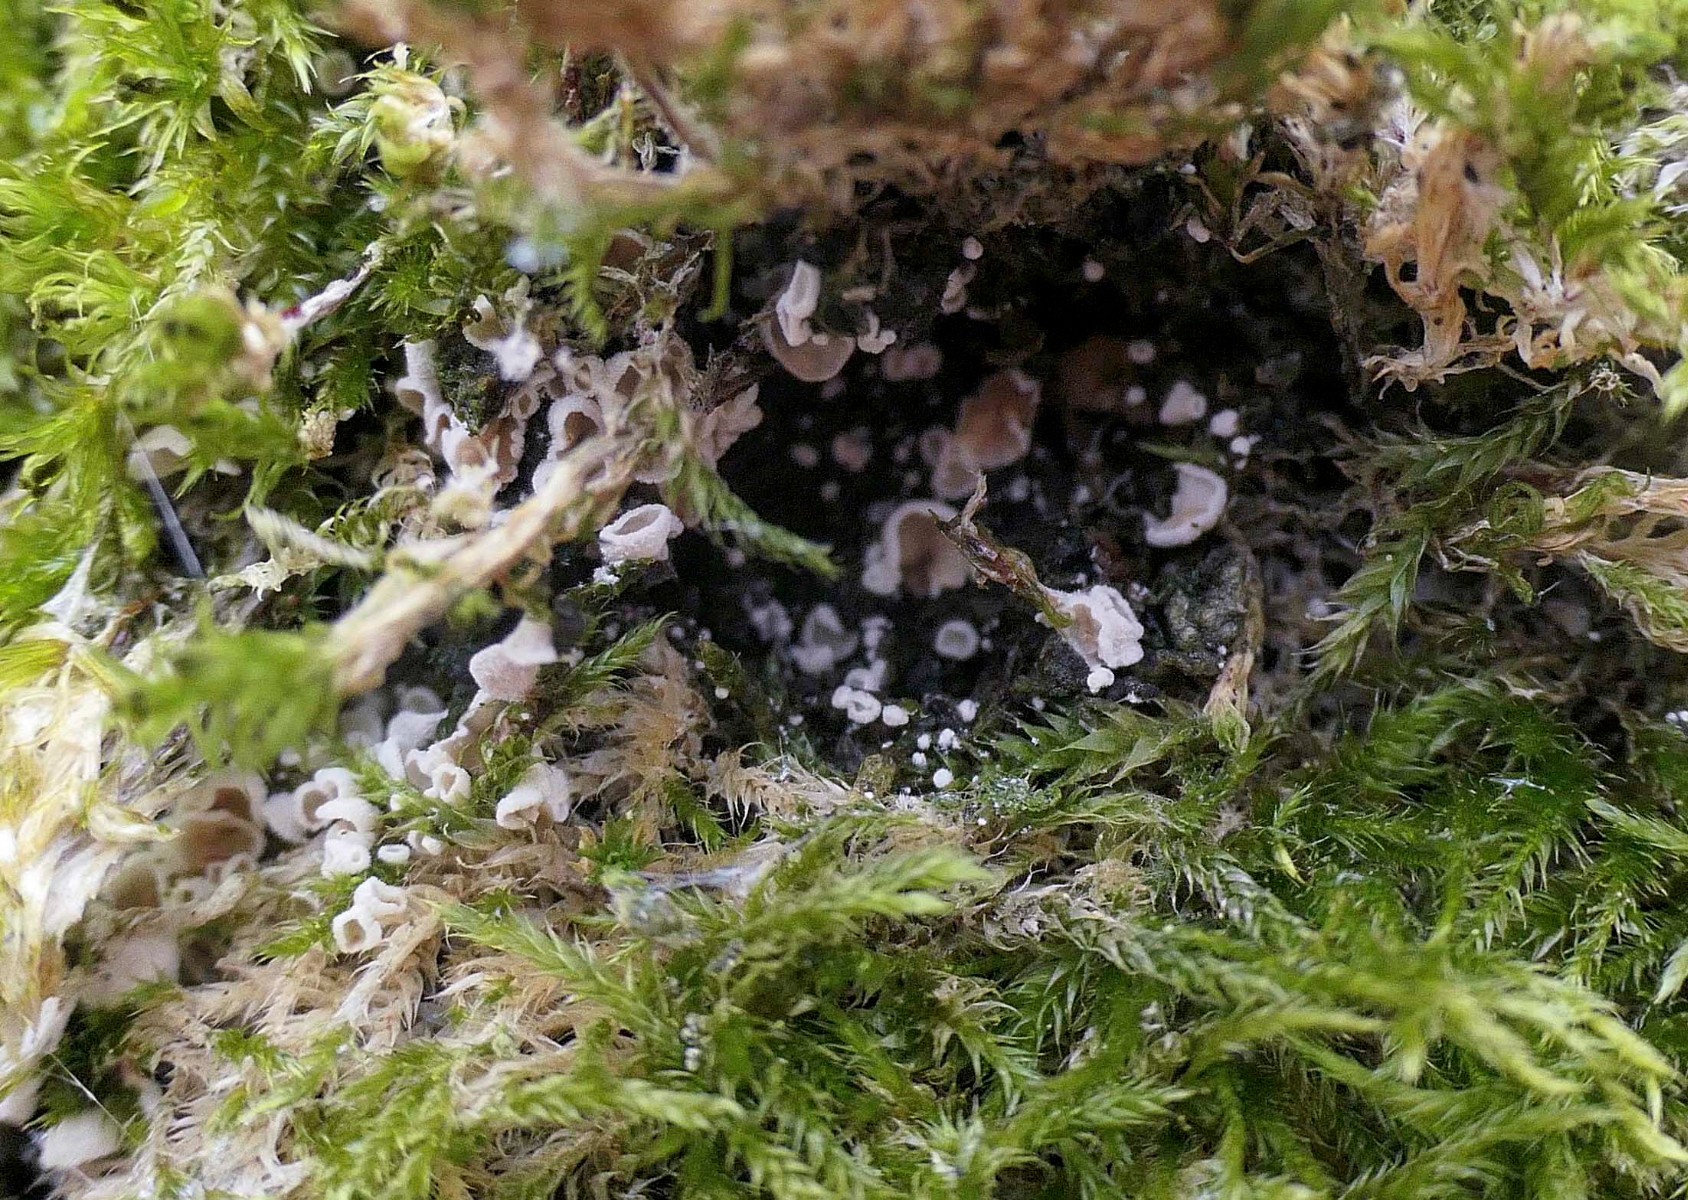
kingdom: Fungi
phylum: Basidiomycota
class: Agaricomycetes
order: Agaricales
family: Chromocyphellaceae
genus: Chromocyphella
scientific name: Chromocyphella muscicola
